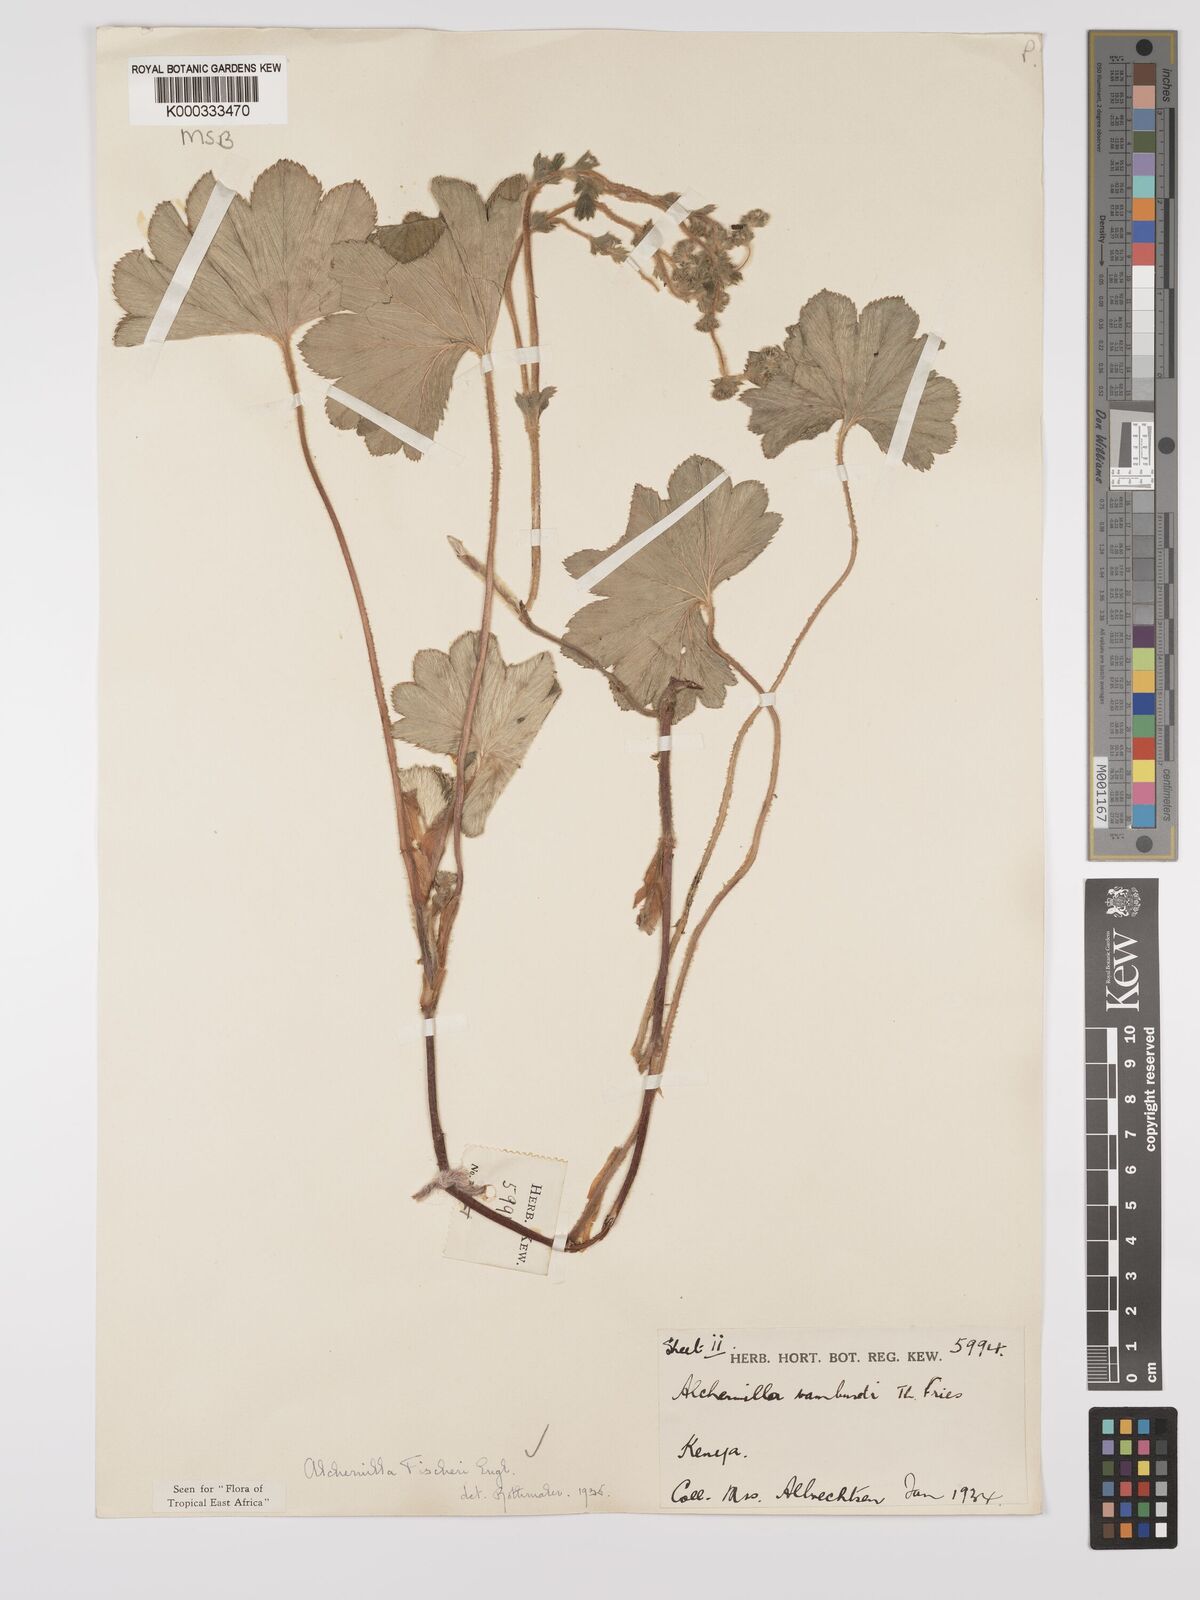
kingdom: Plantae
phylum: Tracheophyta
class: Magnoliopsida
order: Rosales
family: Rosaceae
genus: Alchemilla
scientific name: Alchemilla fischeri
